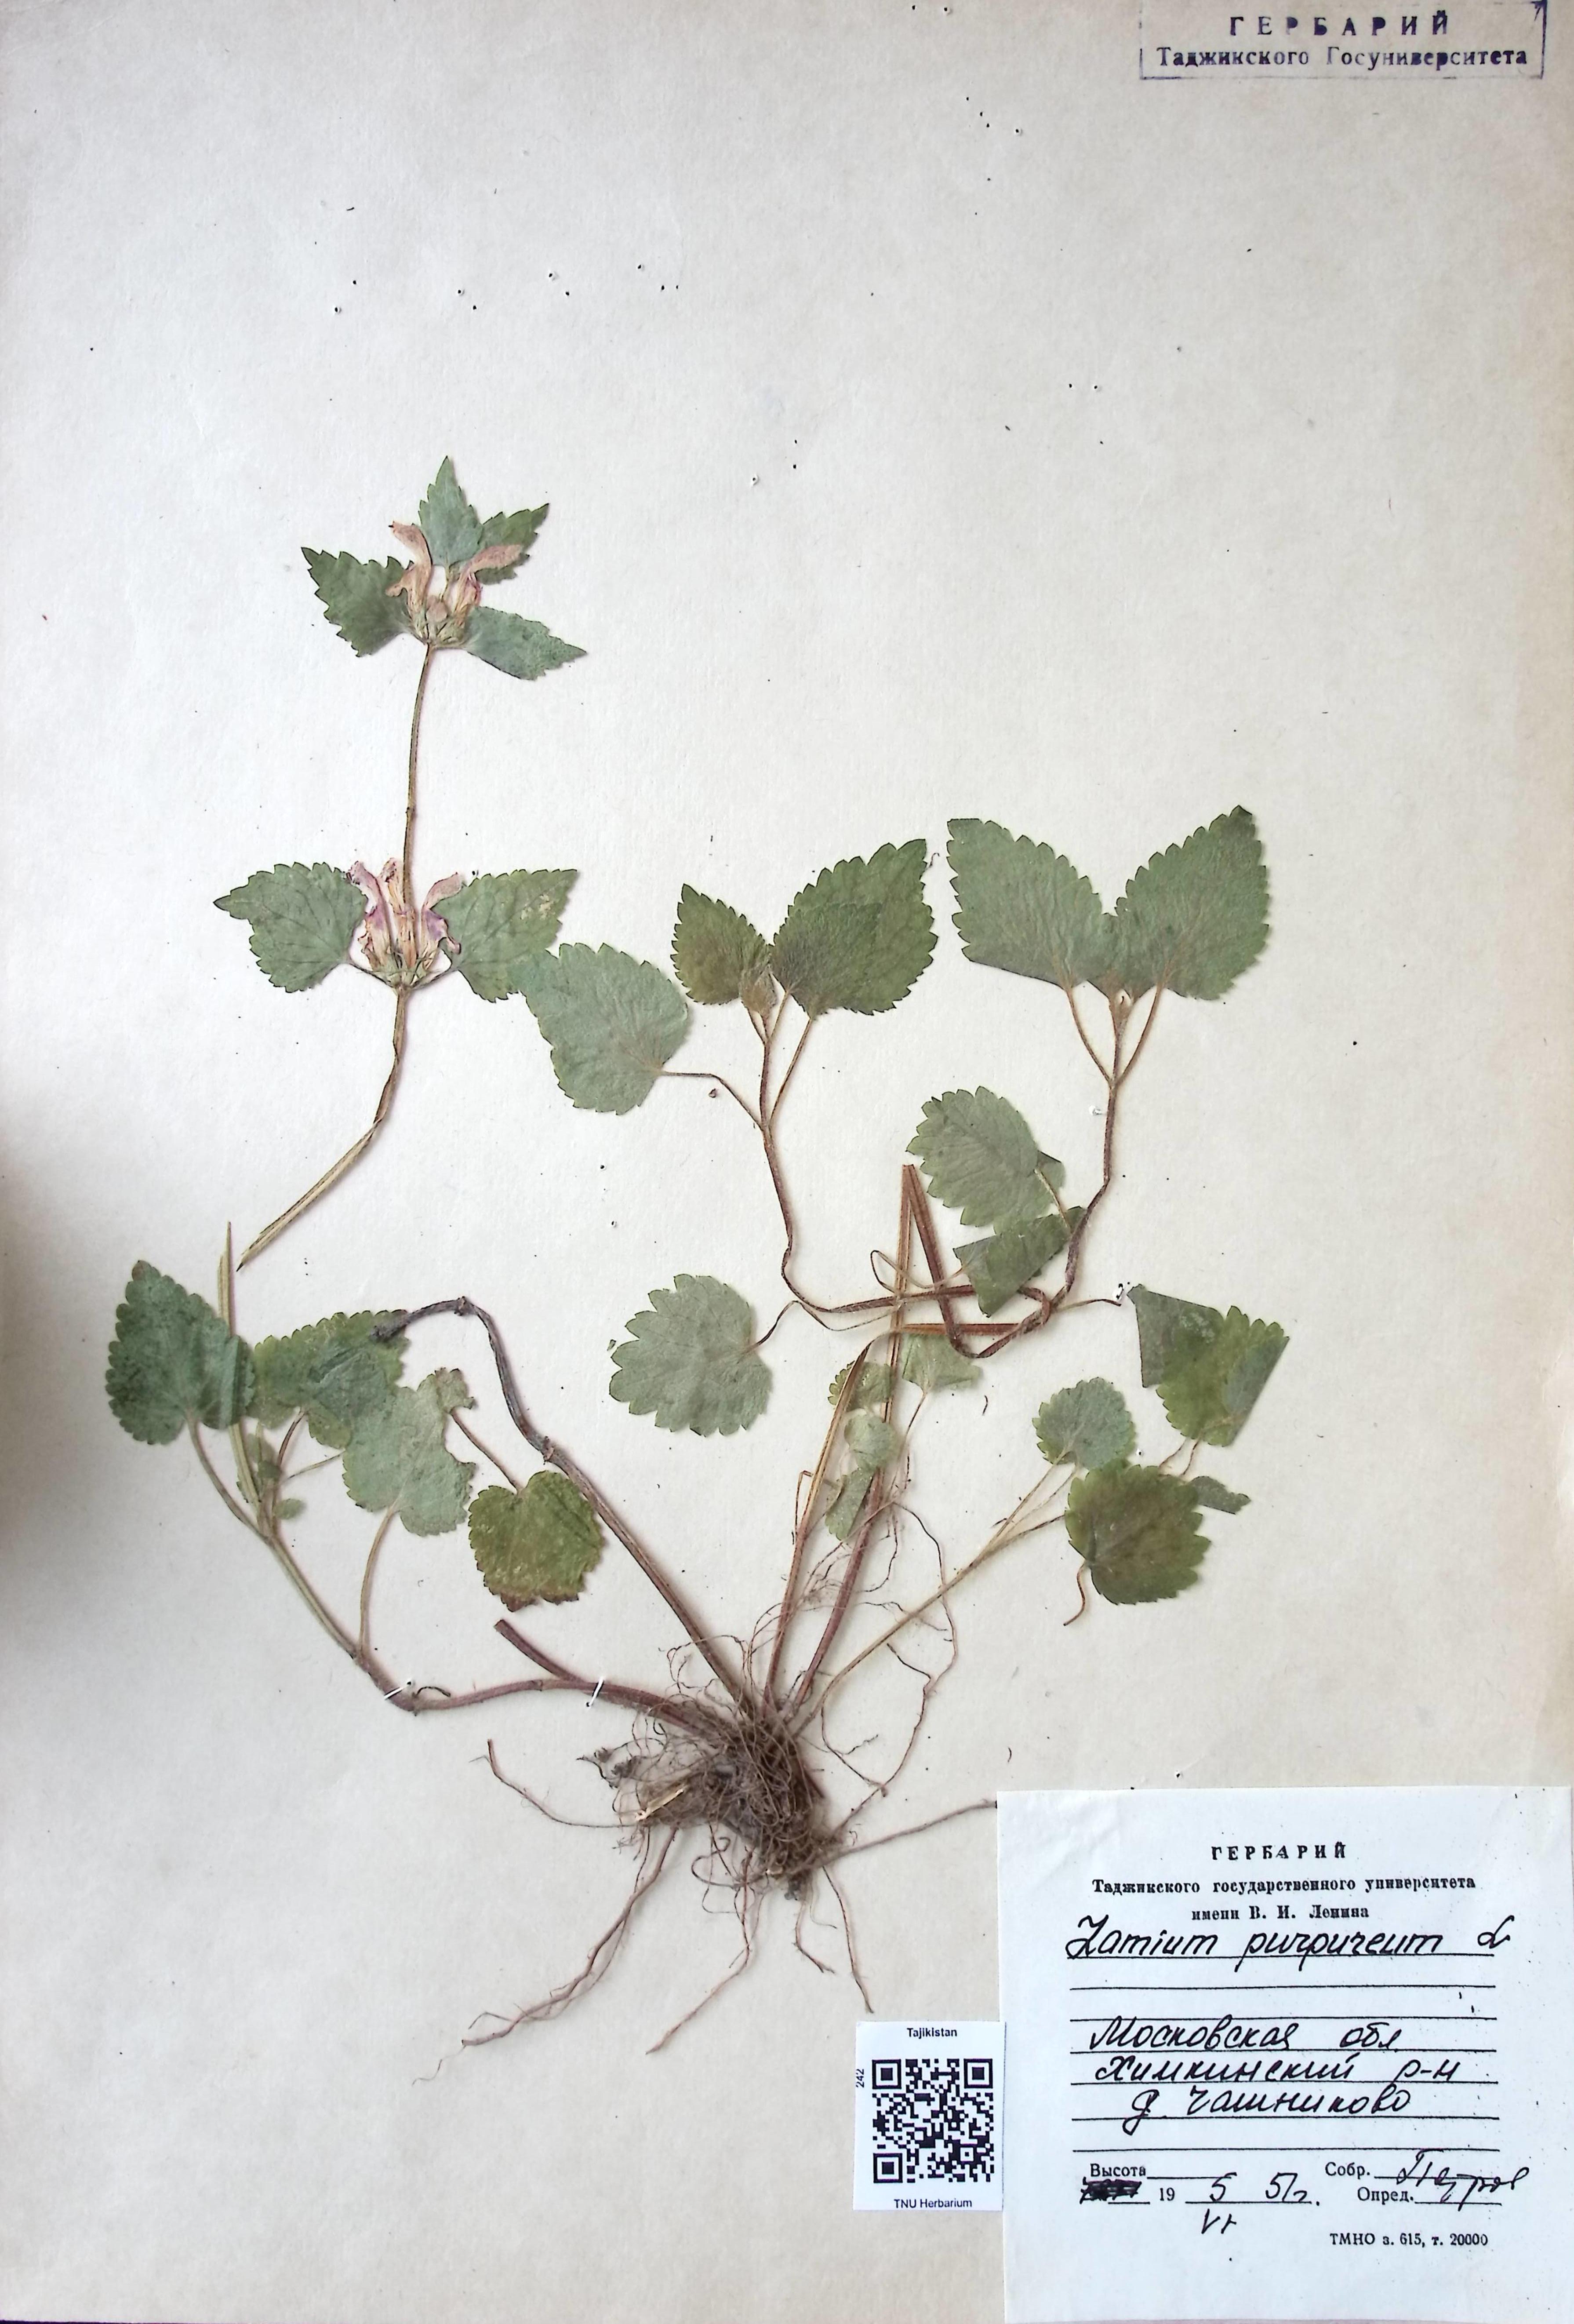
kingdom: Plantae
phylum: Tracheophyta
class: Cycadopsida
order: Cycadales
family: Zamiaceae
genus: Zamia
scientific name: Zamia purpurea
